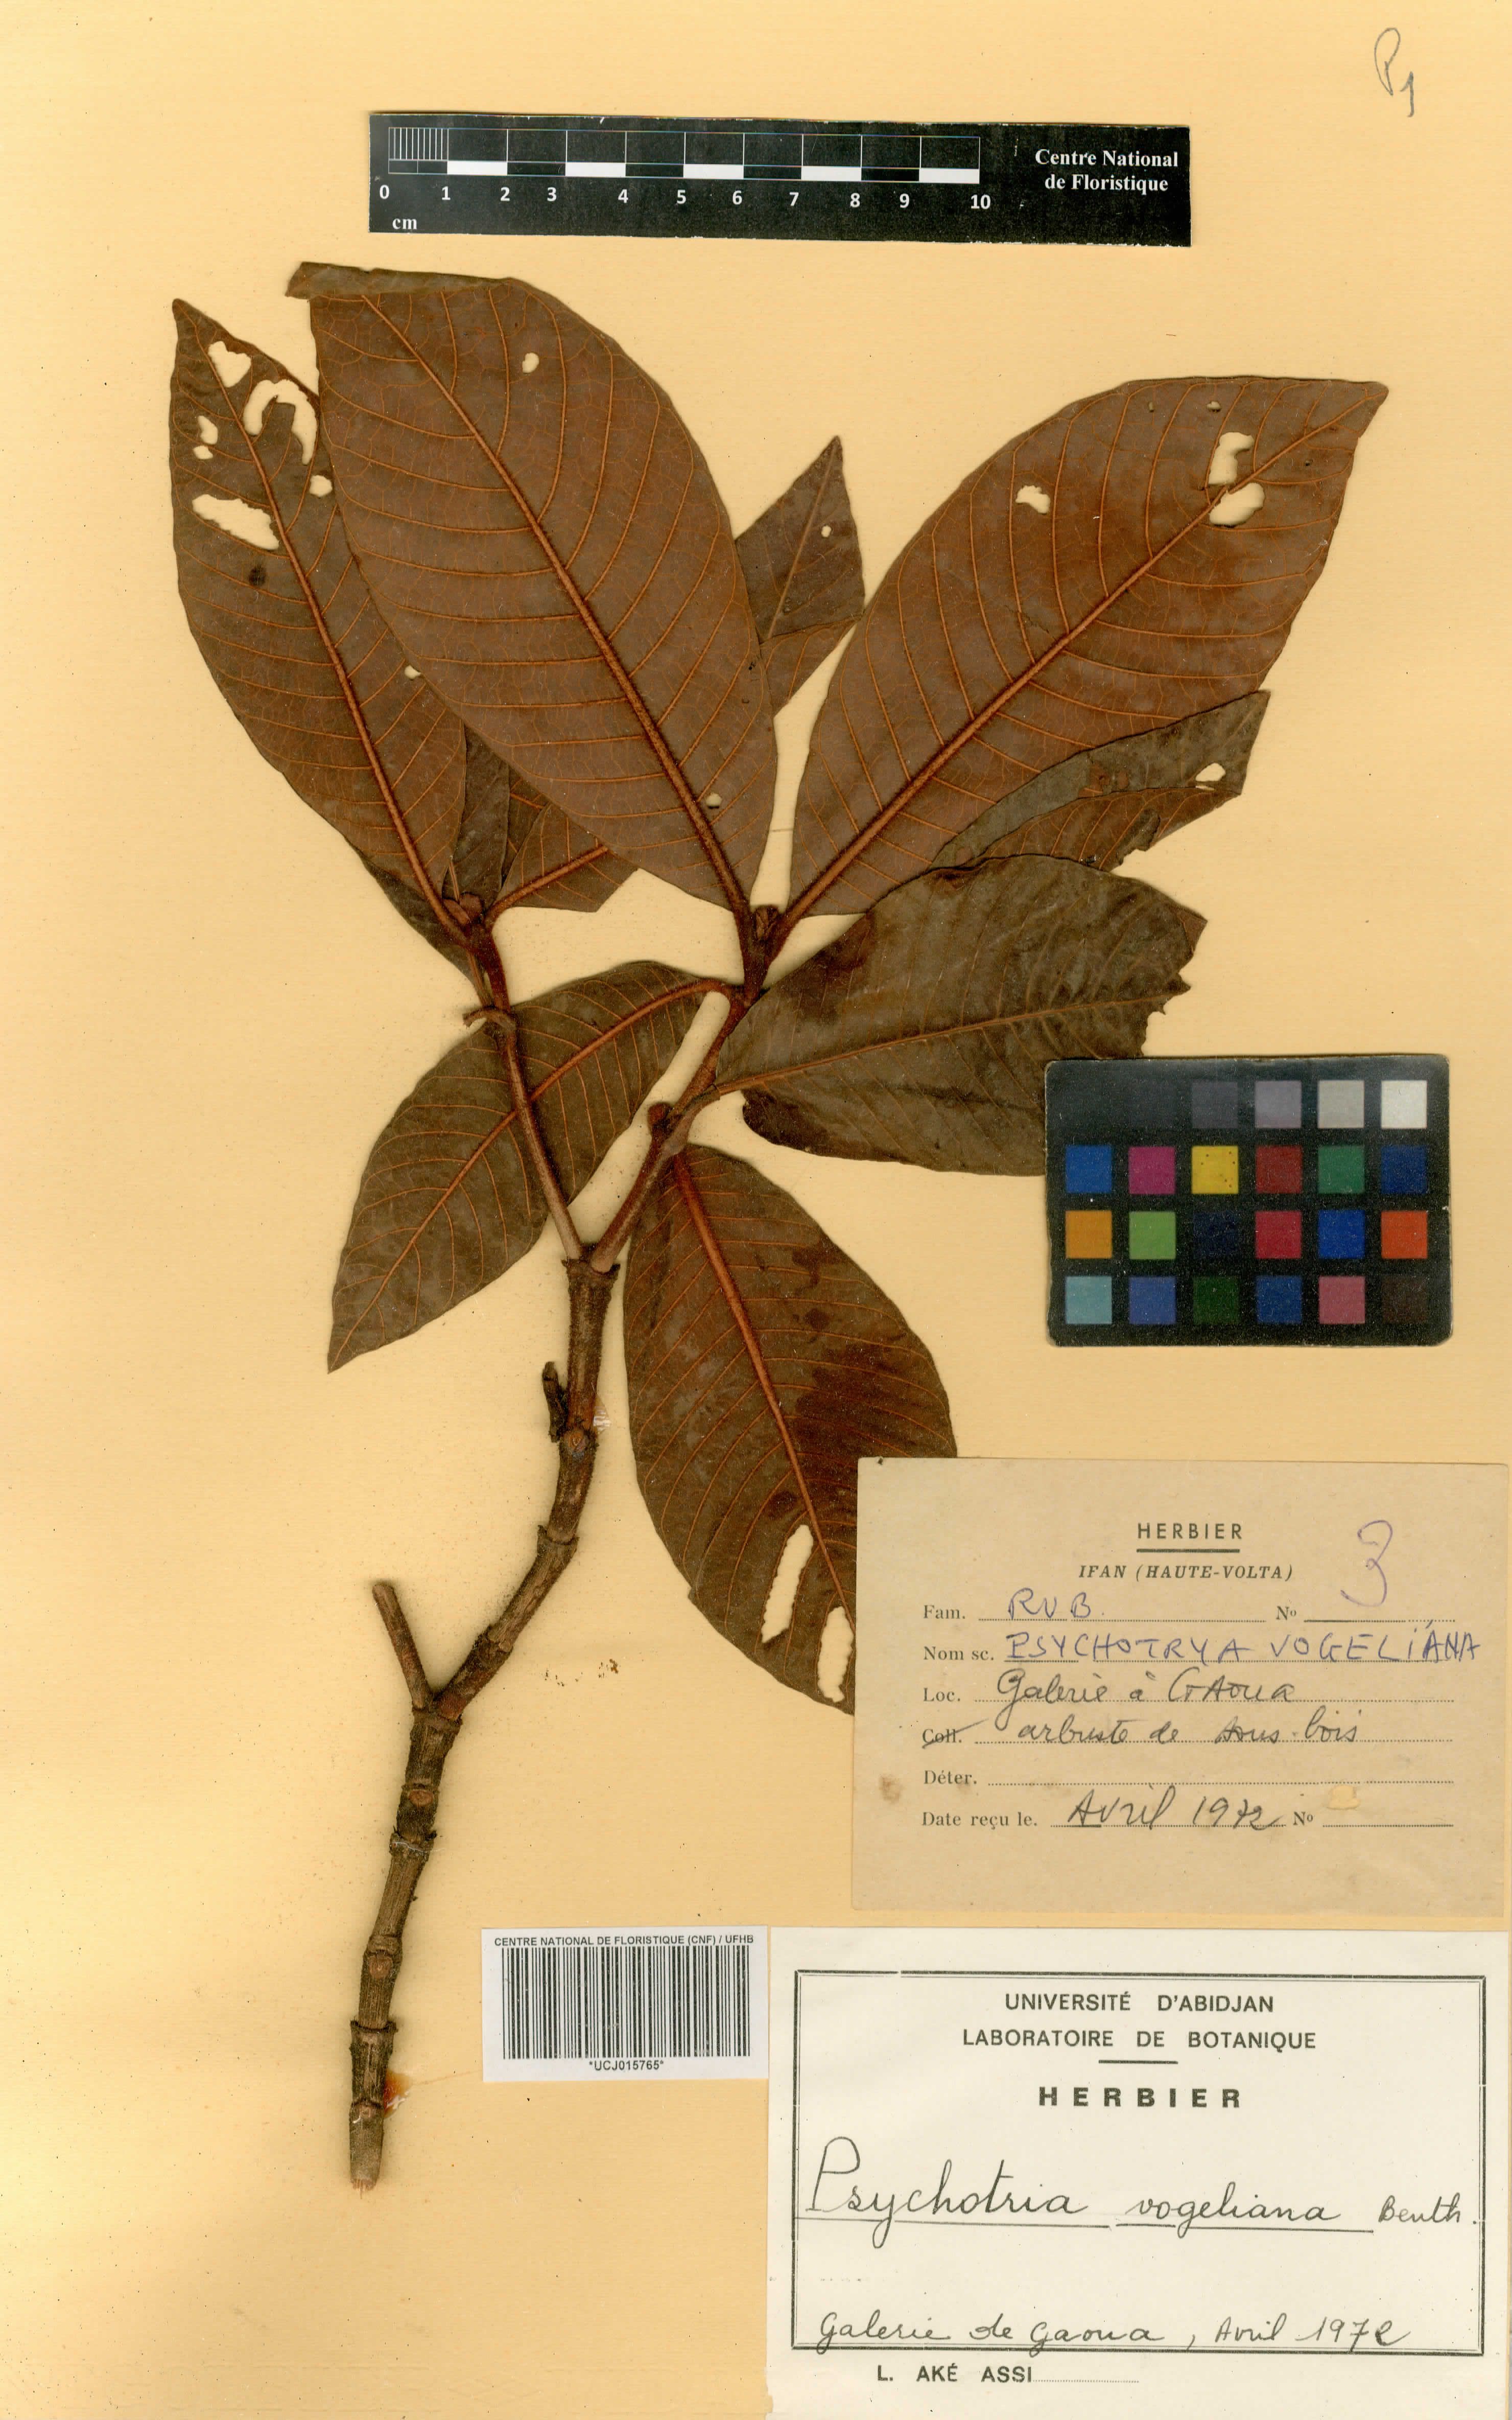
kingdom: Plantae
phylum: Tracheophyta
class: Magnoliopsida
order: Gentianales
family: Rubiaceae
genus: Psychotria
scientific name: Psychotria vogeliana
